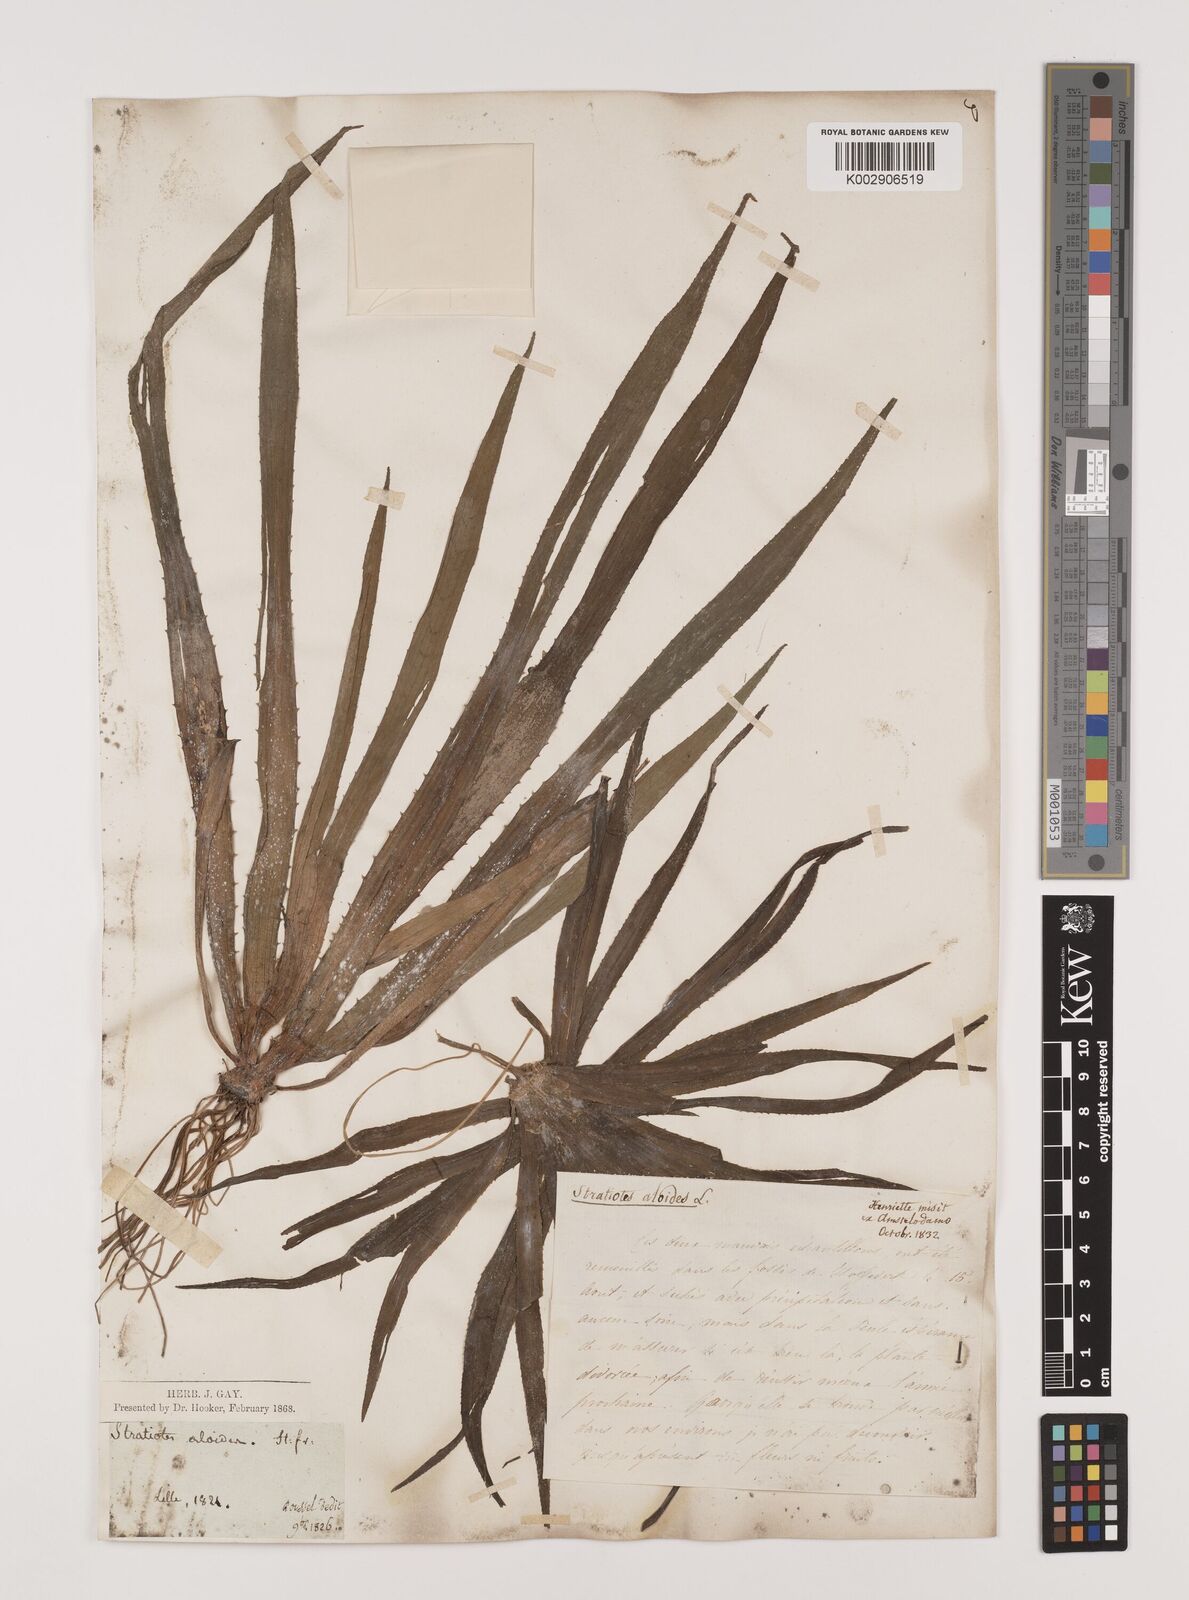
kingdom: Plantae
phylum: Tracheophyta
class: Liliopsida
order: Alismatales
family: Hydrocharitaceae
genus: Stratiotes
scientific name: Stratiotes aloides
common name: Water-soldier
